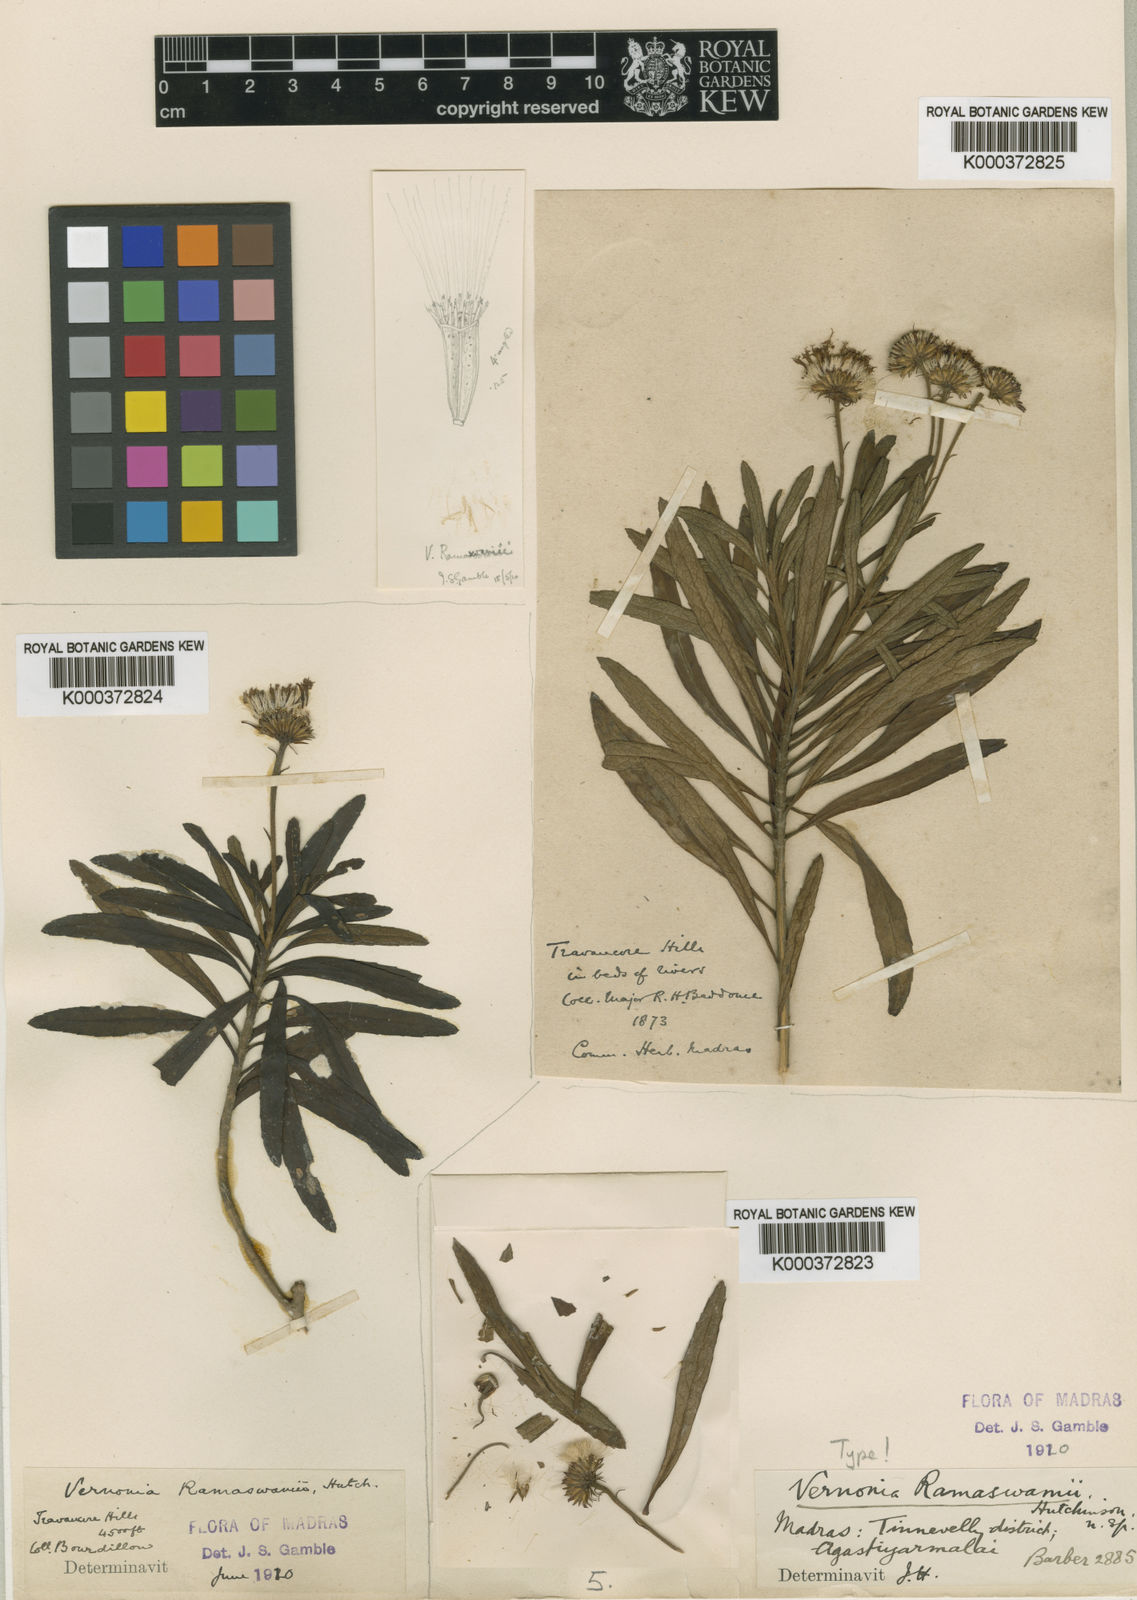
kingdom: Plantae
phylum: Tracheophyta
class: Magnoliopsida
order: Asterales
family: Asteraceae
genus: Uniyala
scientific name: Uniyala ramaswamii
